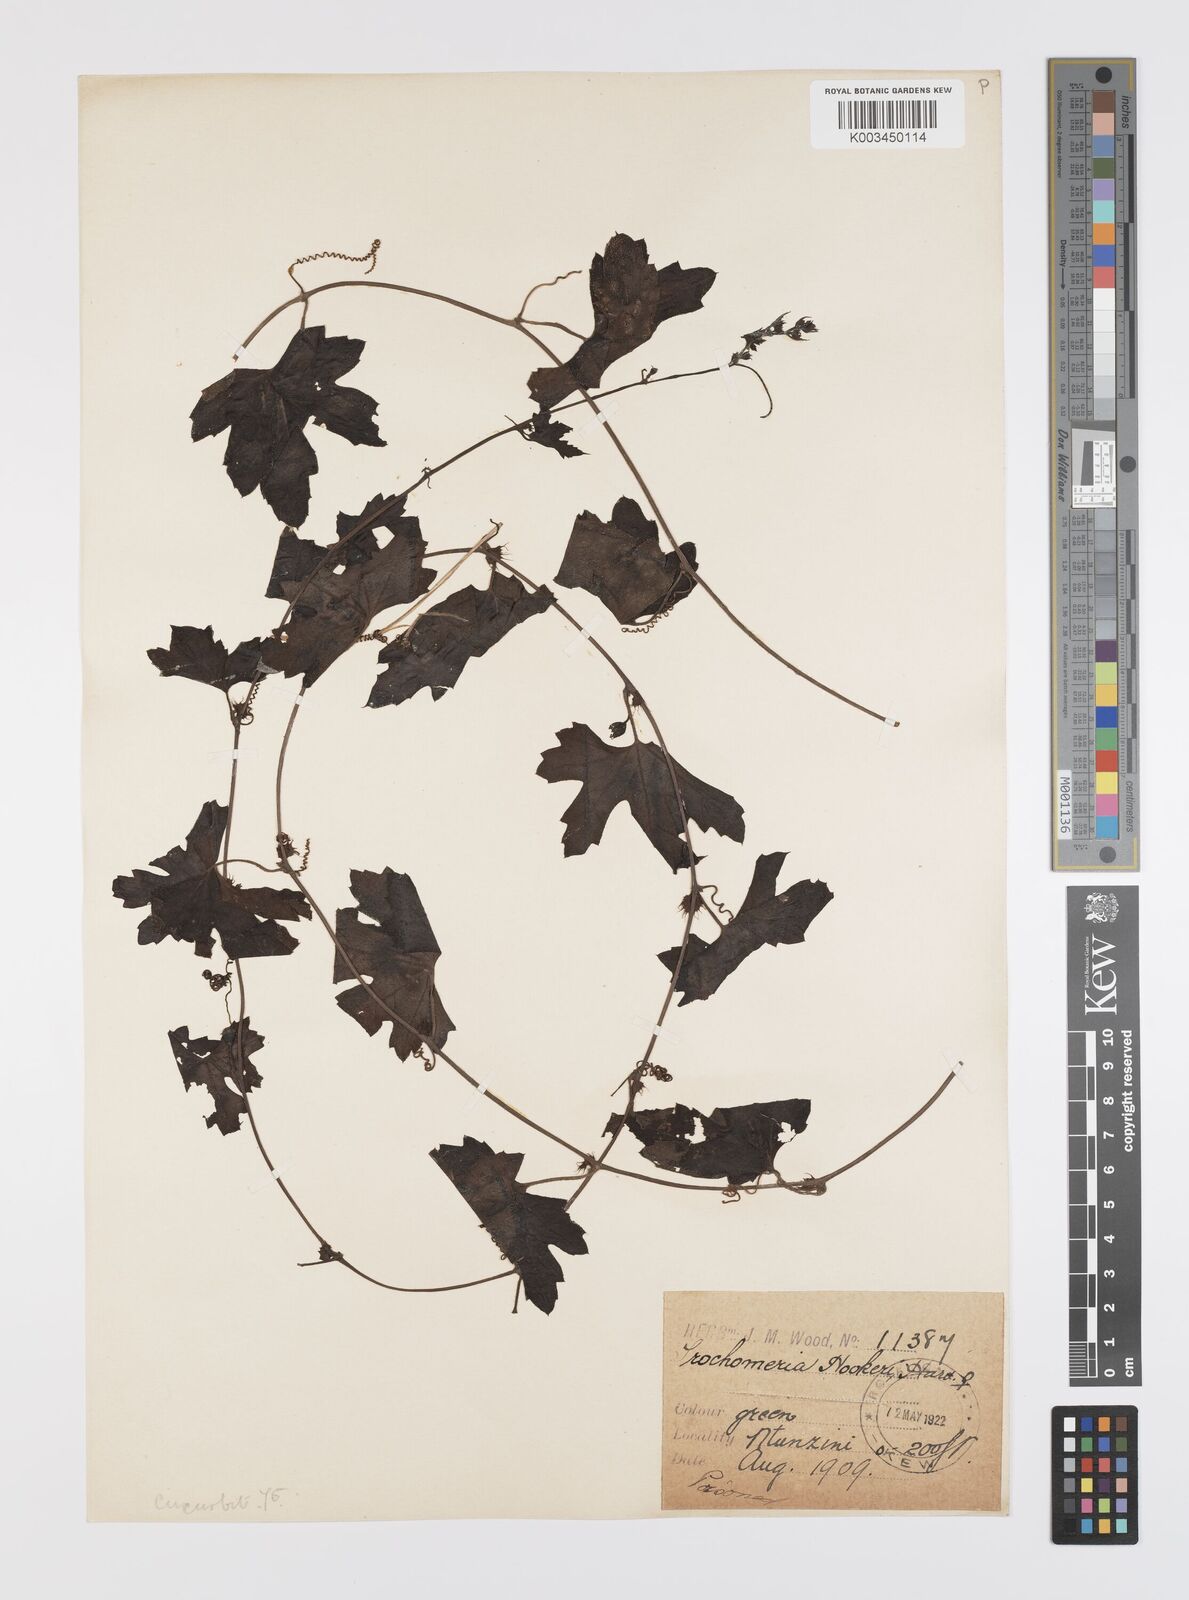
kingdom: Plantae
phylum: Tracheophyta
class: Magnoliopsida
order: Cucurbitales
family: Cucurbitaceae
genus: Trochomeria
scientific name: Trochomeria hookeri
